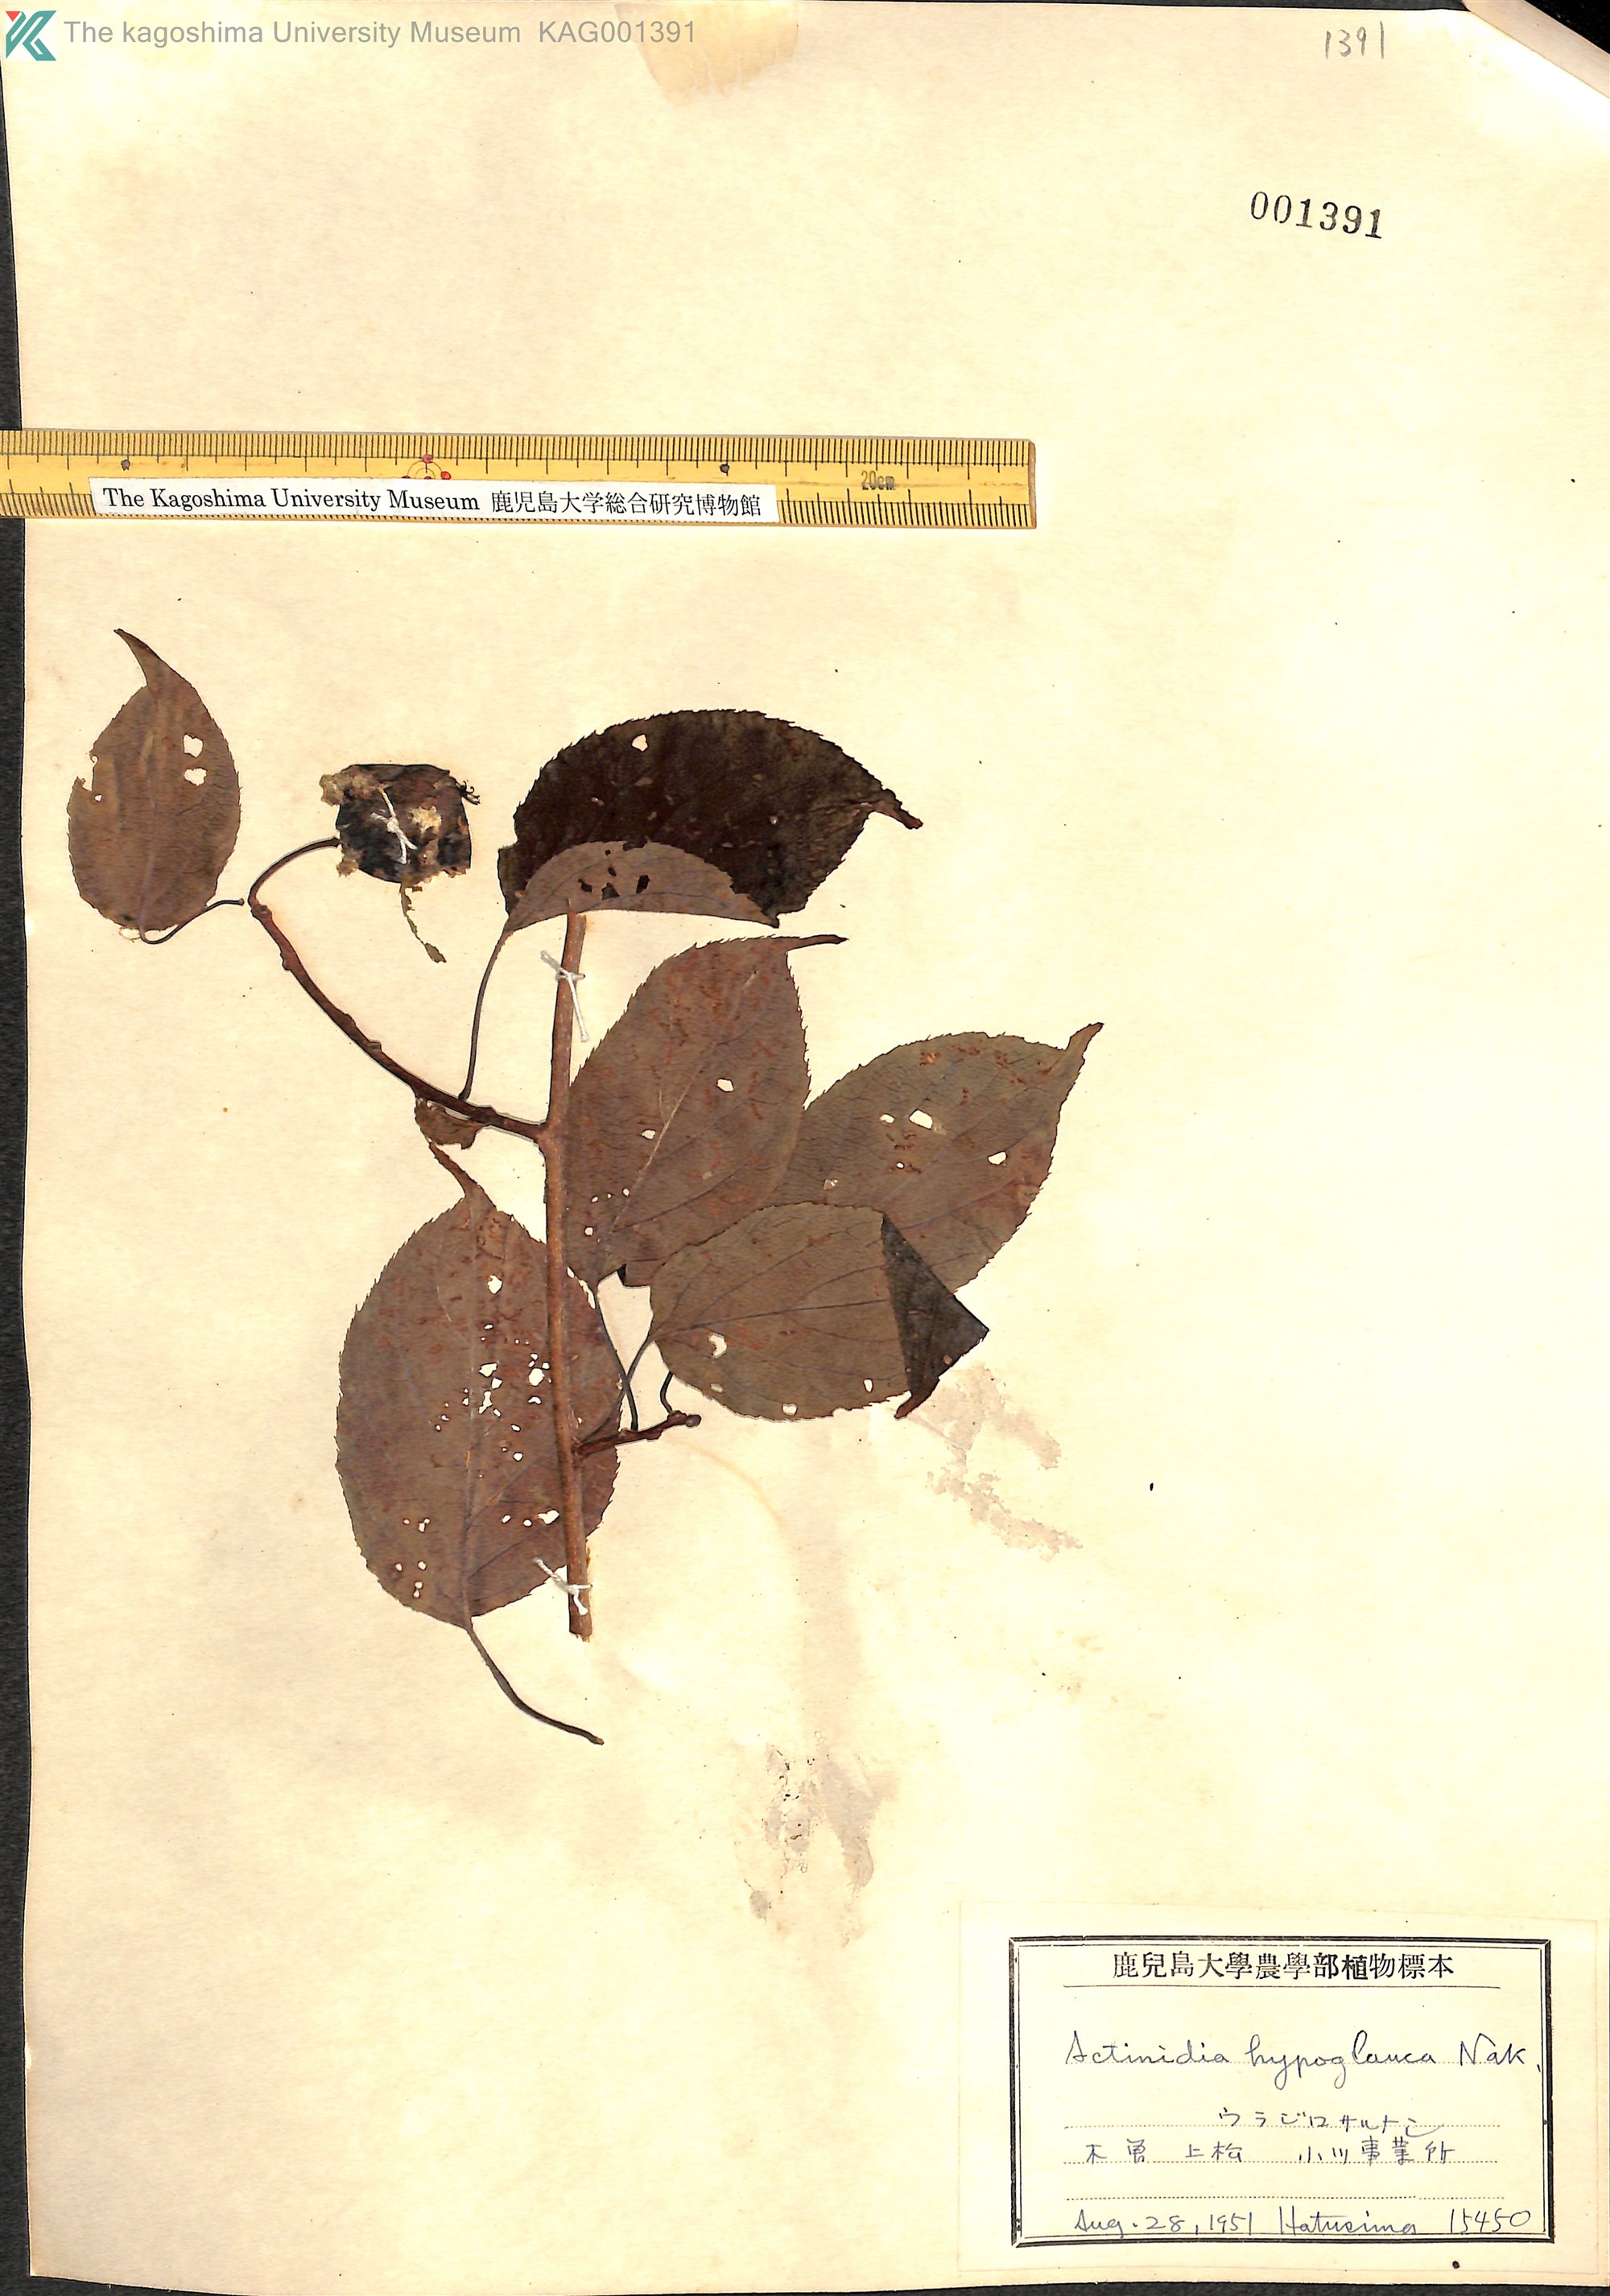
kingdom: Plantae
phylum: Tracheophyta
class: Magnoliopsida
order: Ericales
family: Actinidiaceae
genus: Actinidia
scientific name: Actinidia arguta
